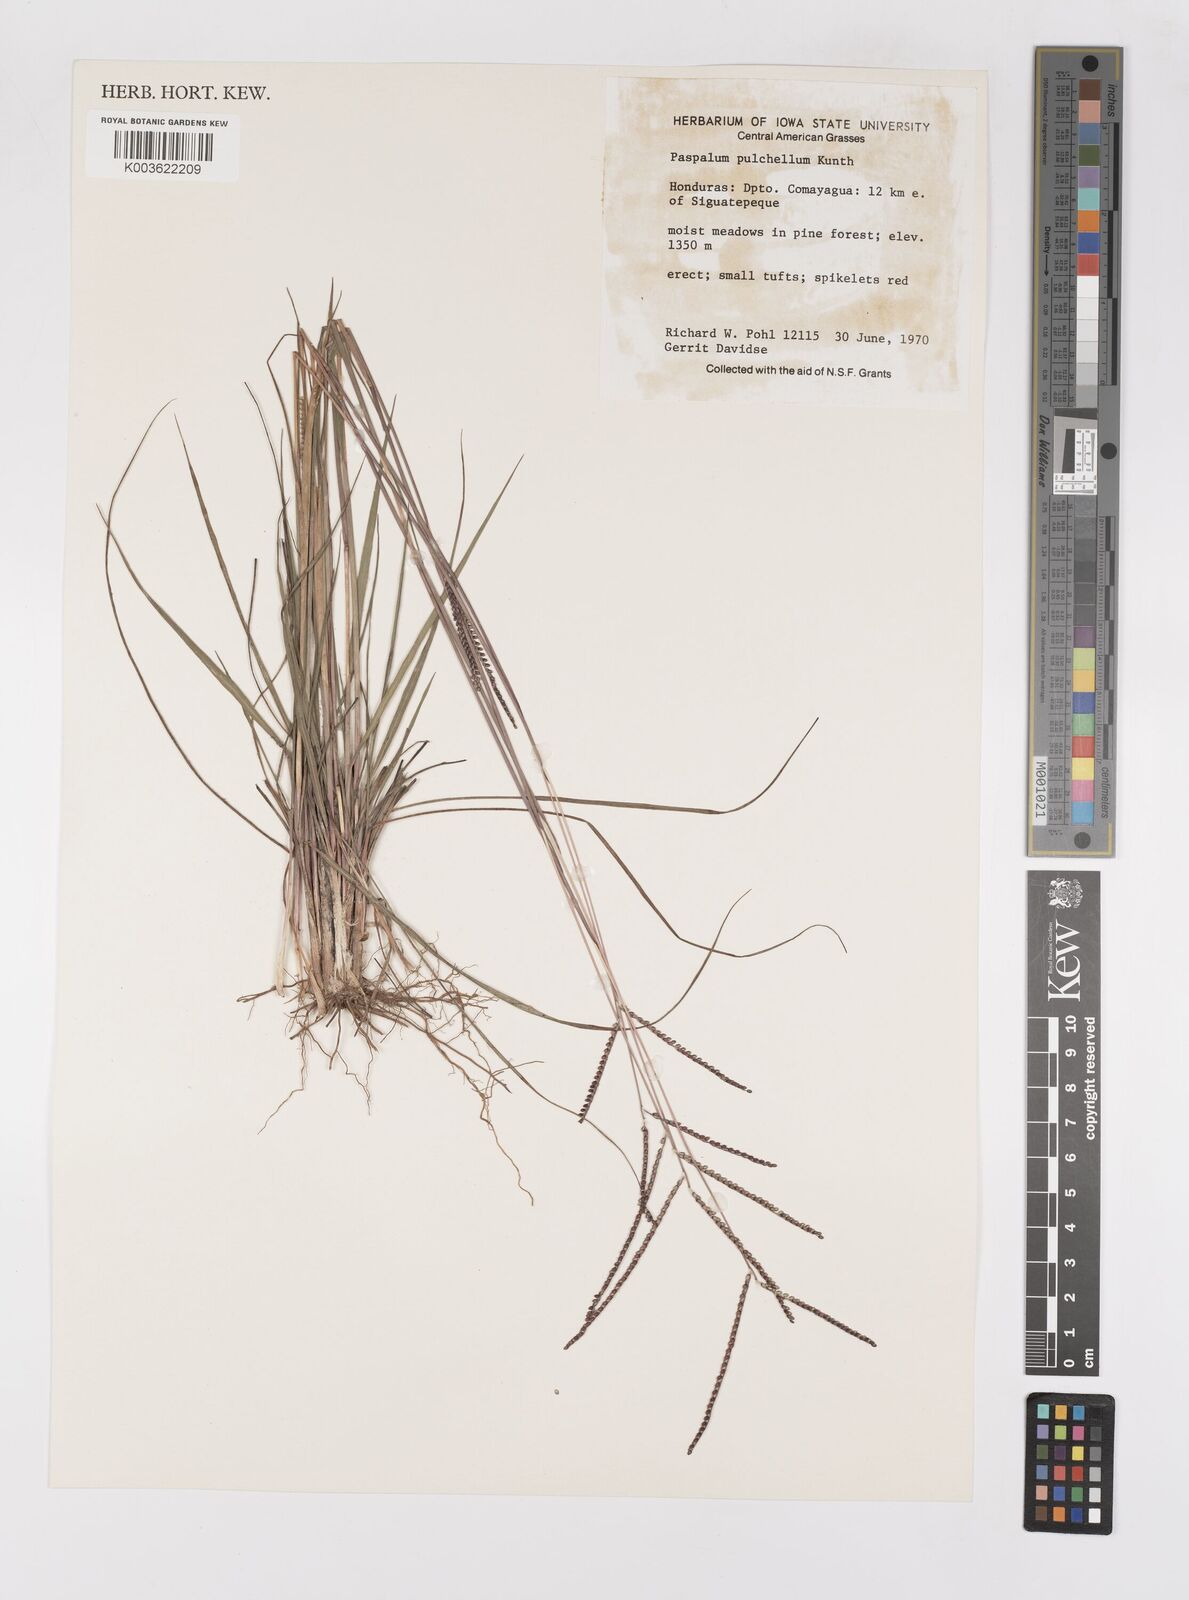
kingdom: Plantae
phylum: Tracheophyta
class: Liliopsida
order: Poales
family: Poaceae
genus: Paspalum
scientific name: Paspalum pulchellum
